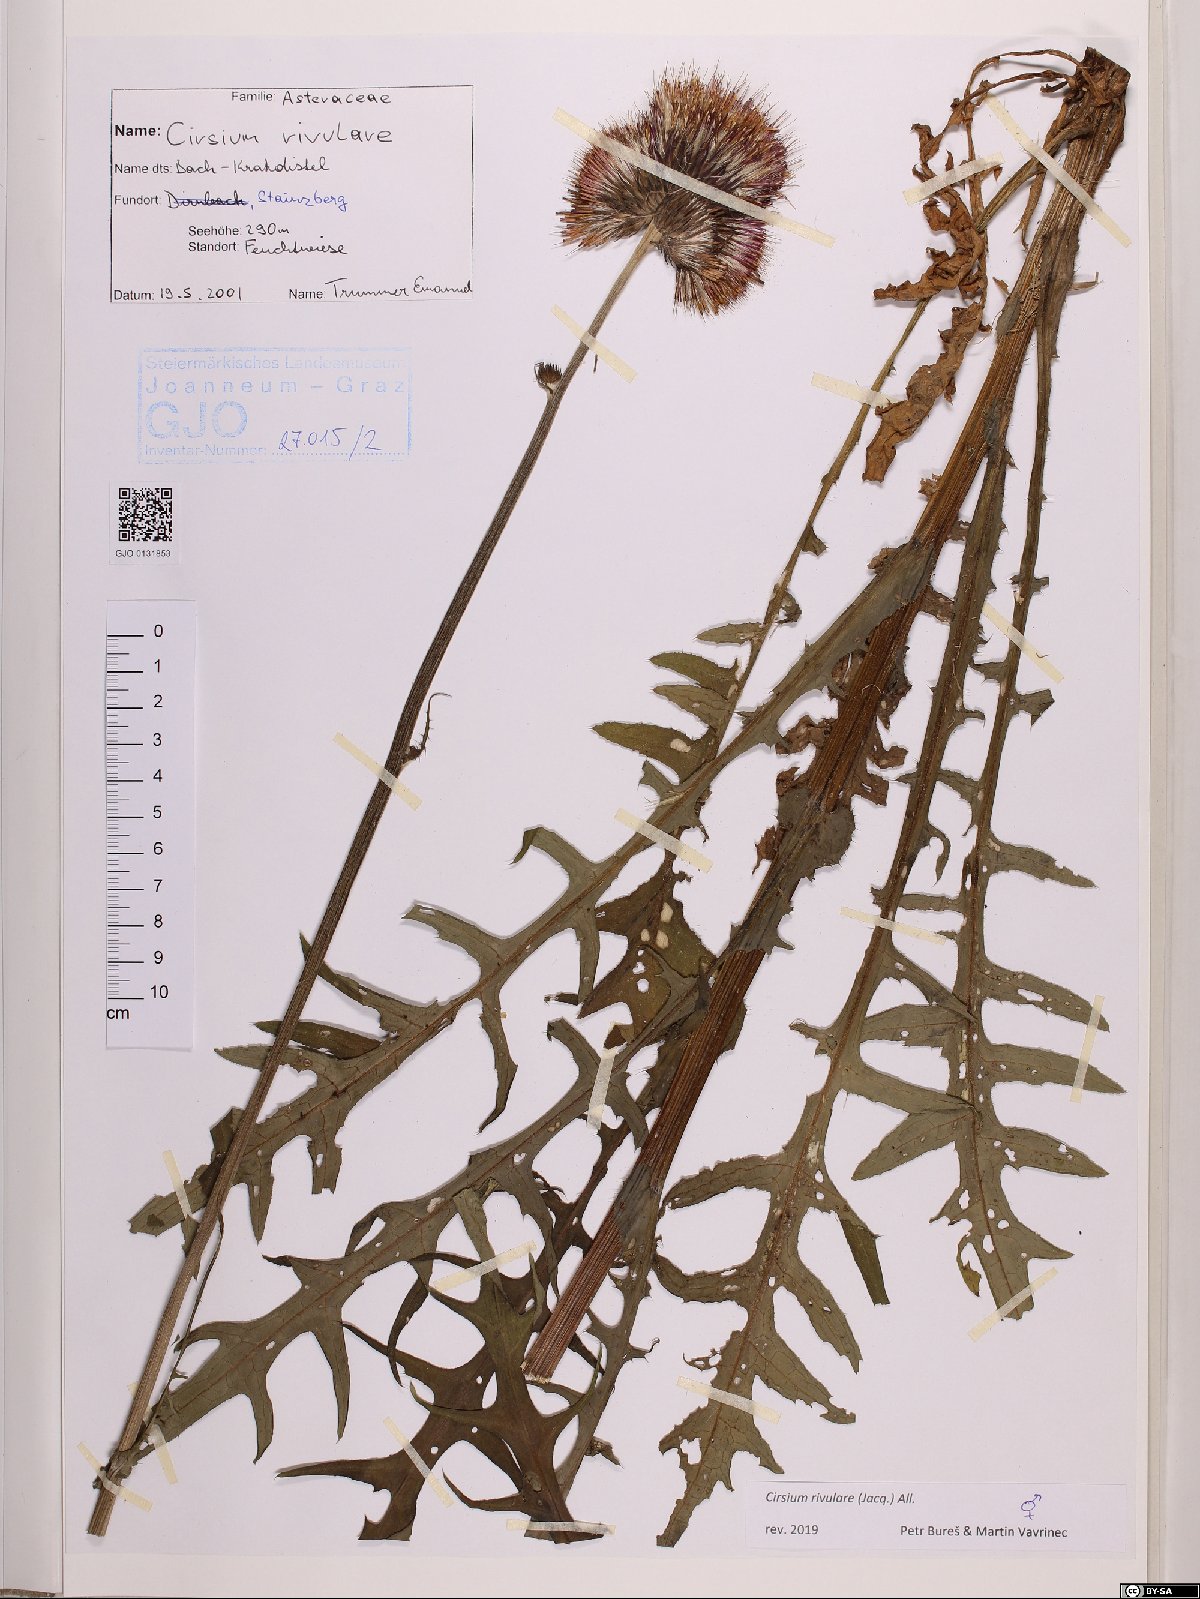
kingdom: Plantae
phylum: Tracheophyta
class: Magnoliopsida
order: Asterales
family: Asteraceae
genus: Cirsium
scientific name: Cirsium rivulare
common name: Brook thistle
